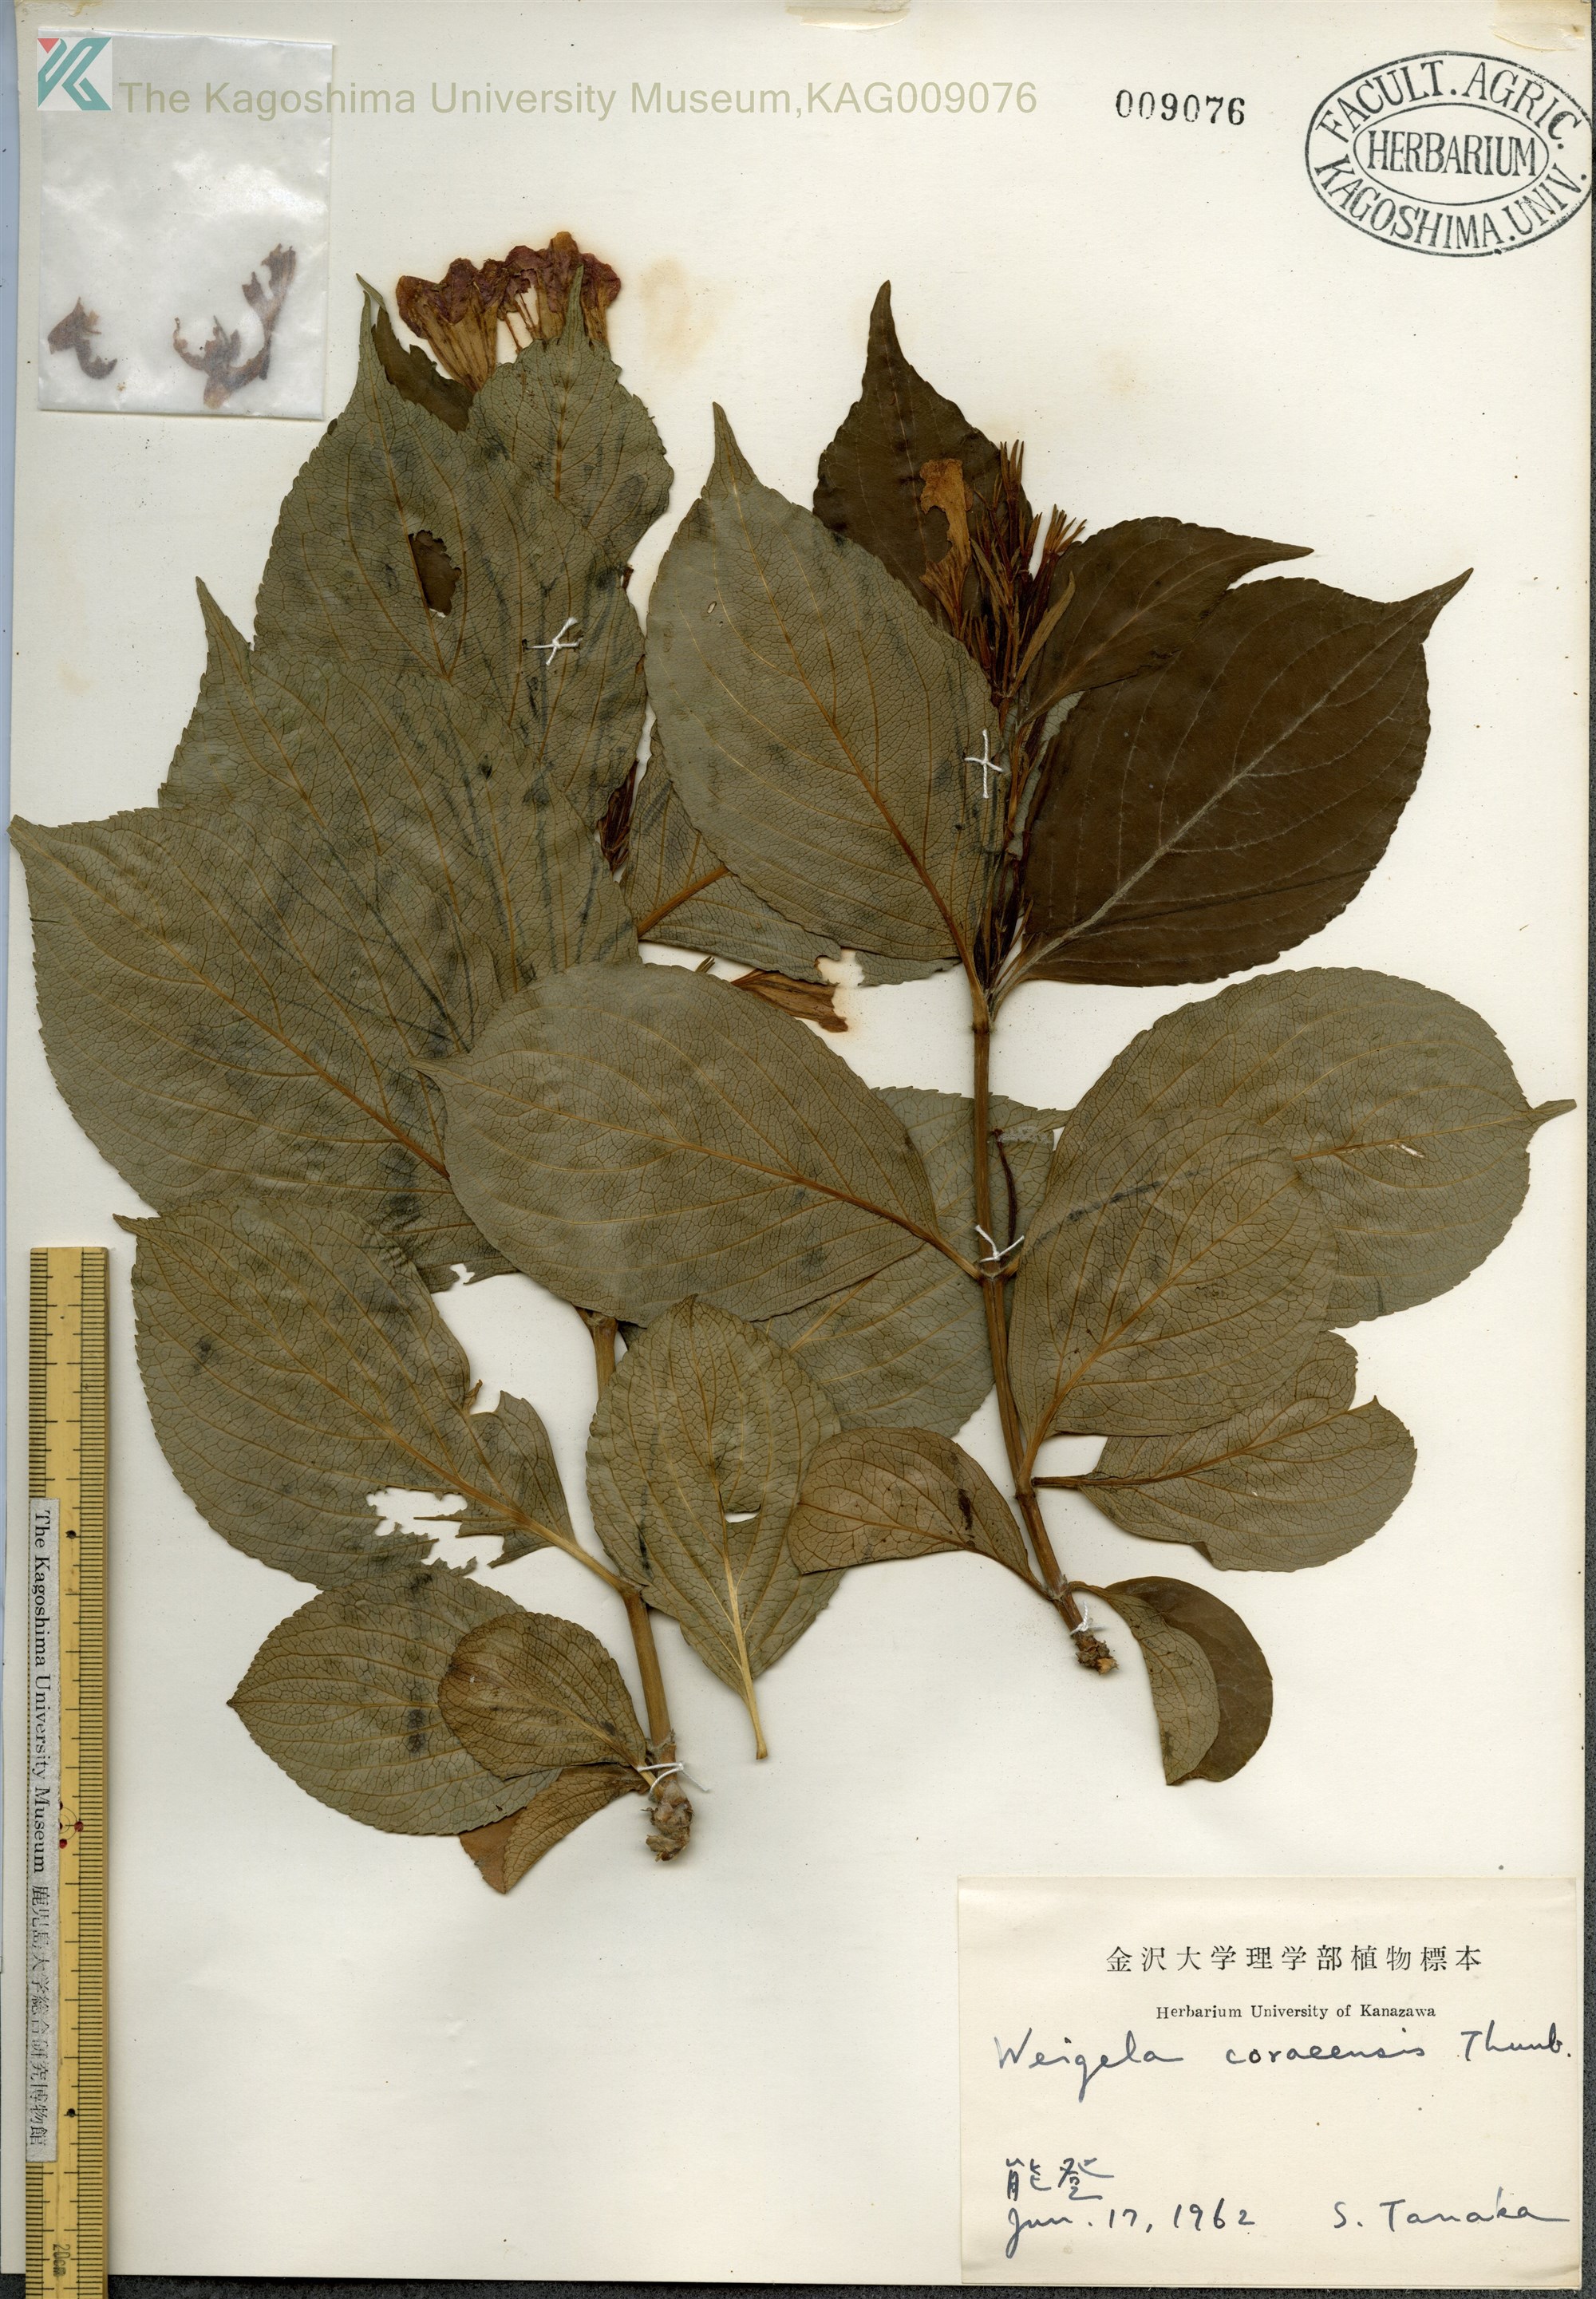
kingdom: Plantae
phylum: Tracheophyta
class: Magnoliopsida
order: Dipsacales
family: Caprifoliaceae
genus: Weigela
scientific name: Weigela
